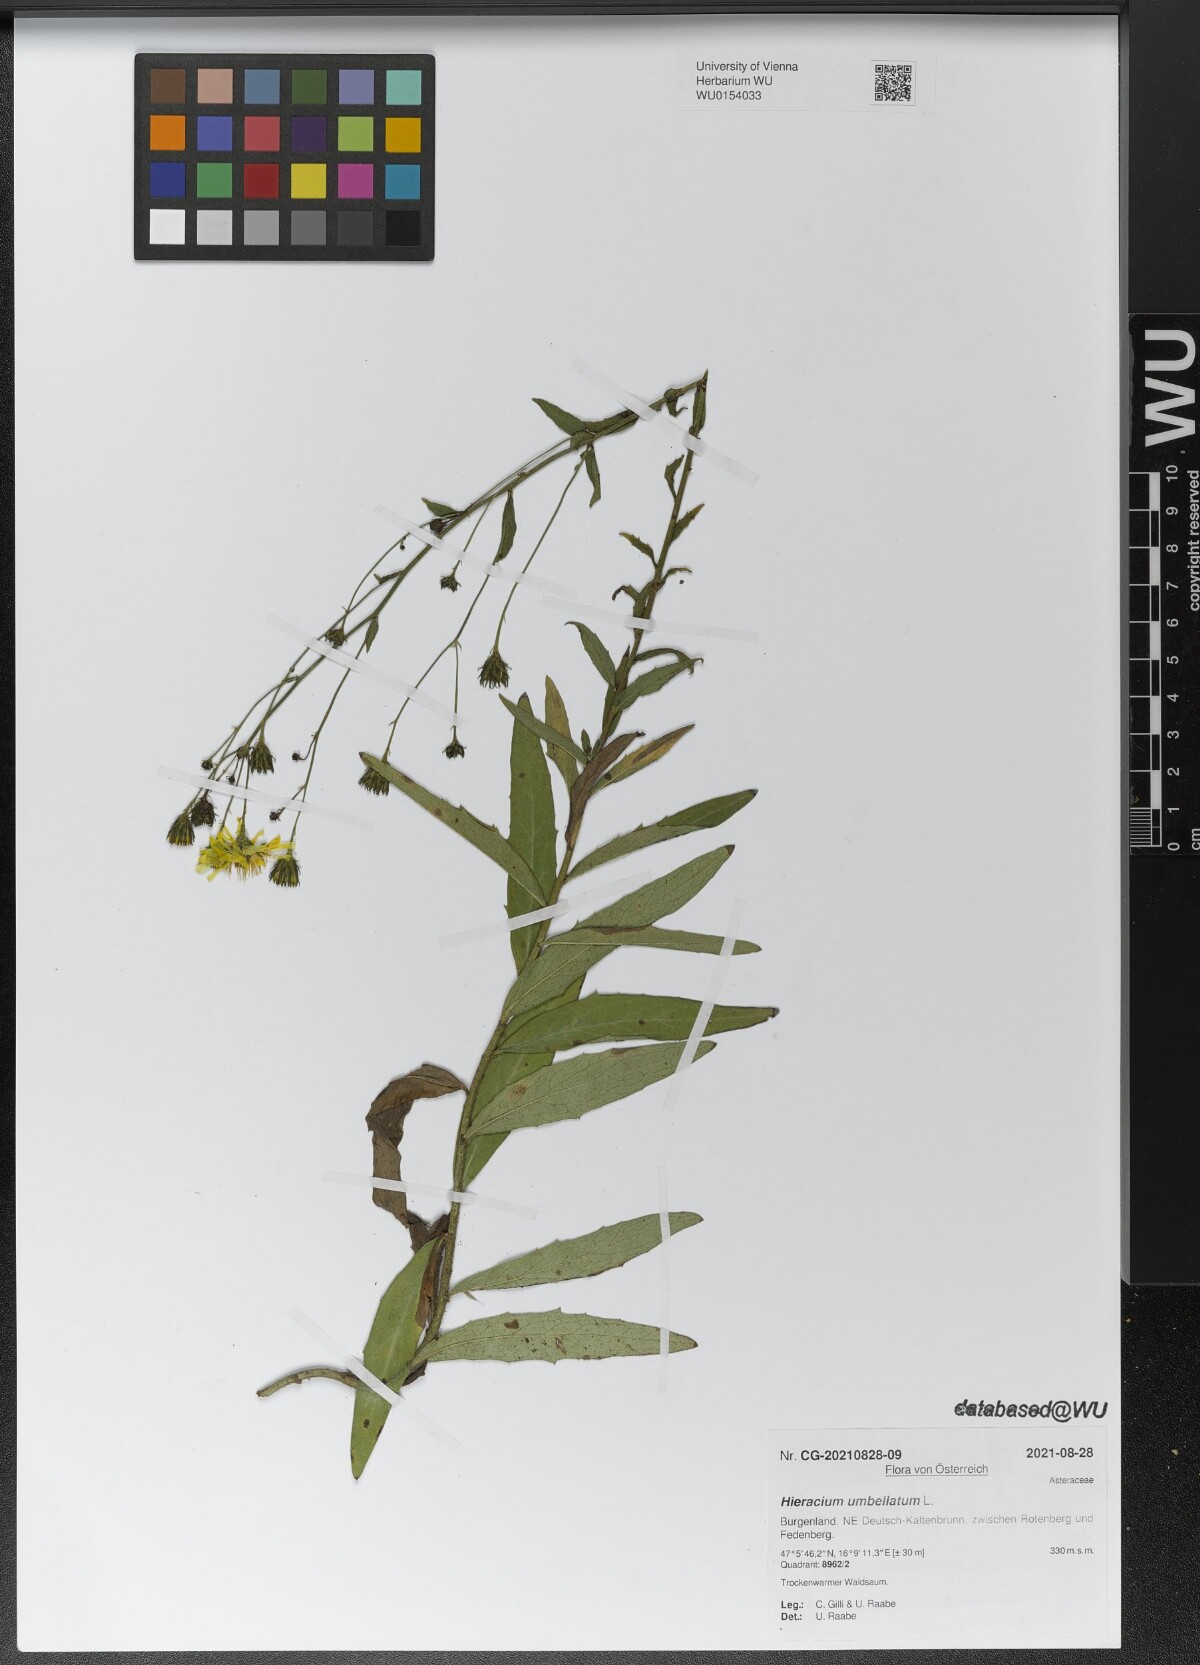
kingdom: Plantae
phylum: Tracheophyta
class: Magnoliopsida
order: Asterales
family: Asteraceae
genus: Hieracium
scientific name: Hieracium umbellatum
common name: Northern hawkweed
